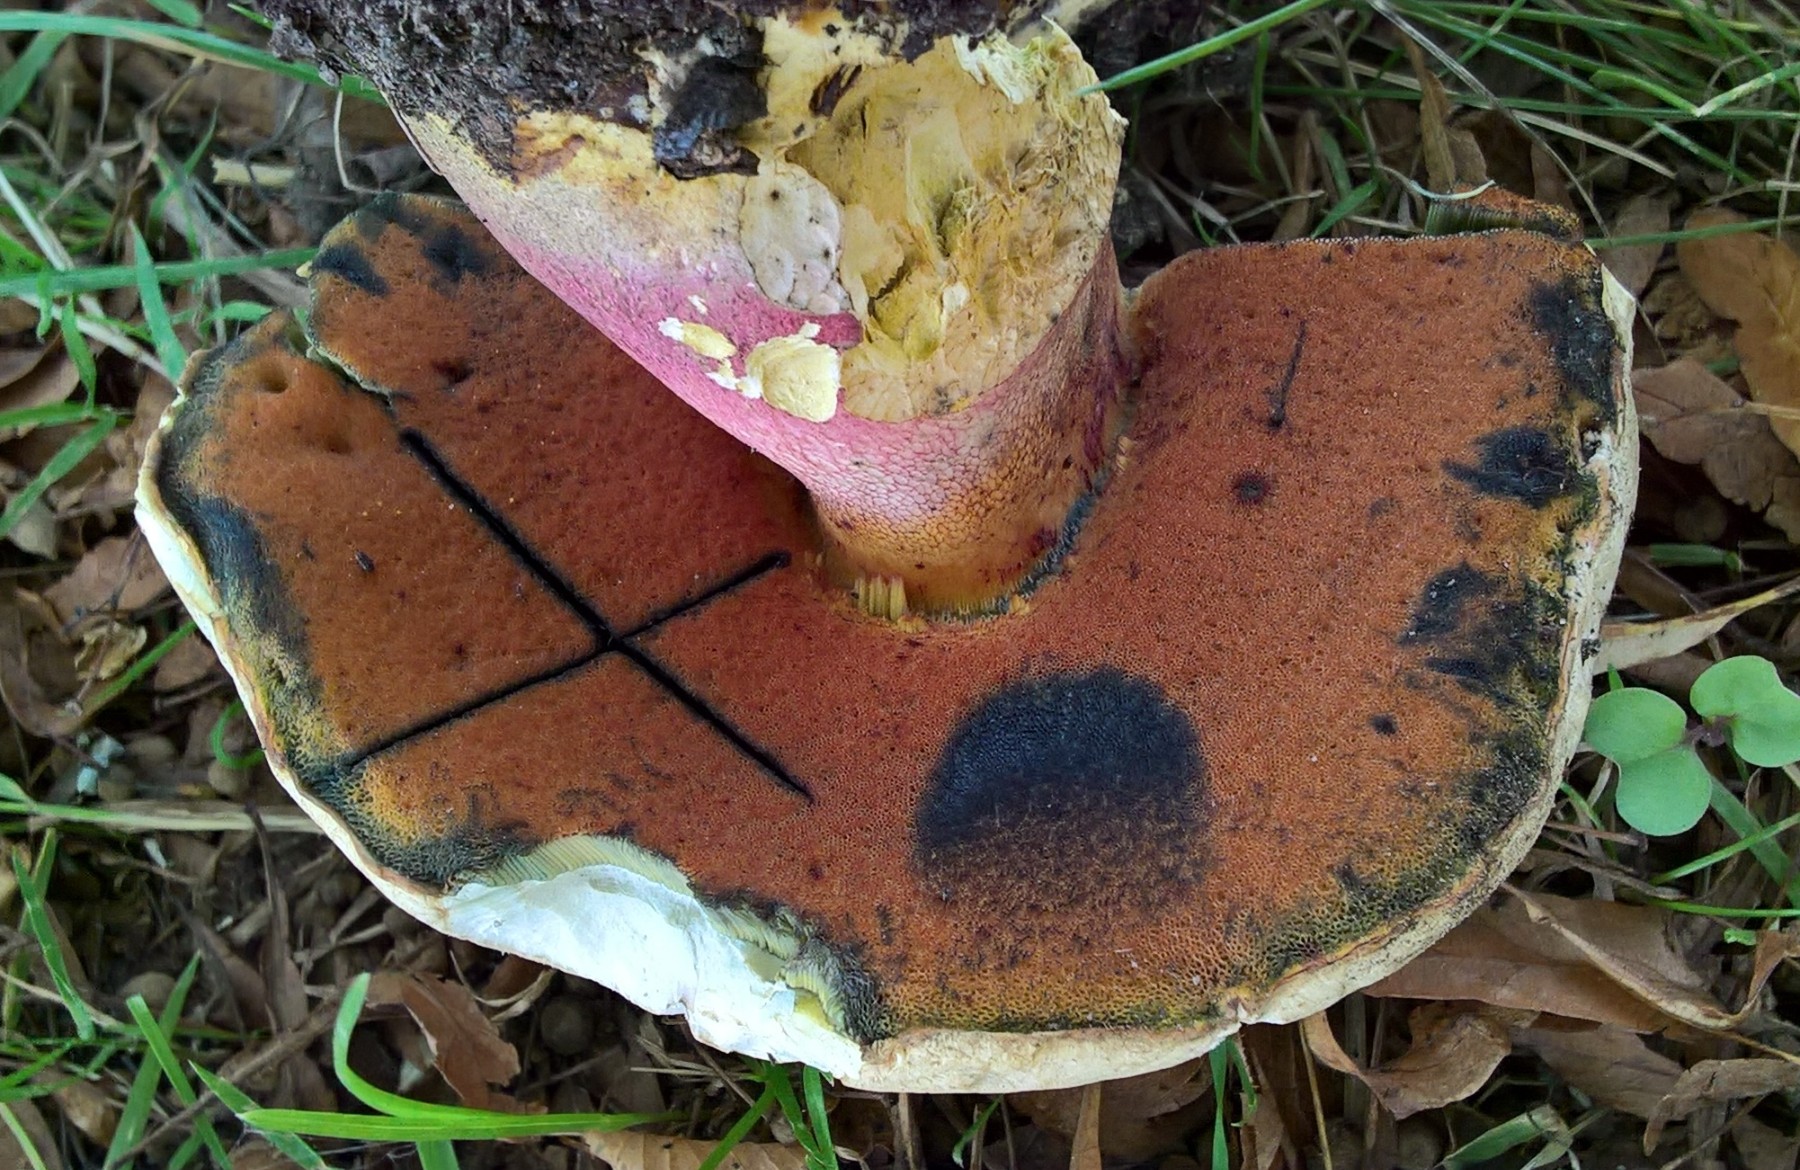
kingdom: Fungi
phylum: Basidiomycota
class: Agaricomycetes
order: Boletales
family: Boletaceae
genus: Rubroboletus
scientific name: Rubroboletus satanas
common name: Satans rørhat
